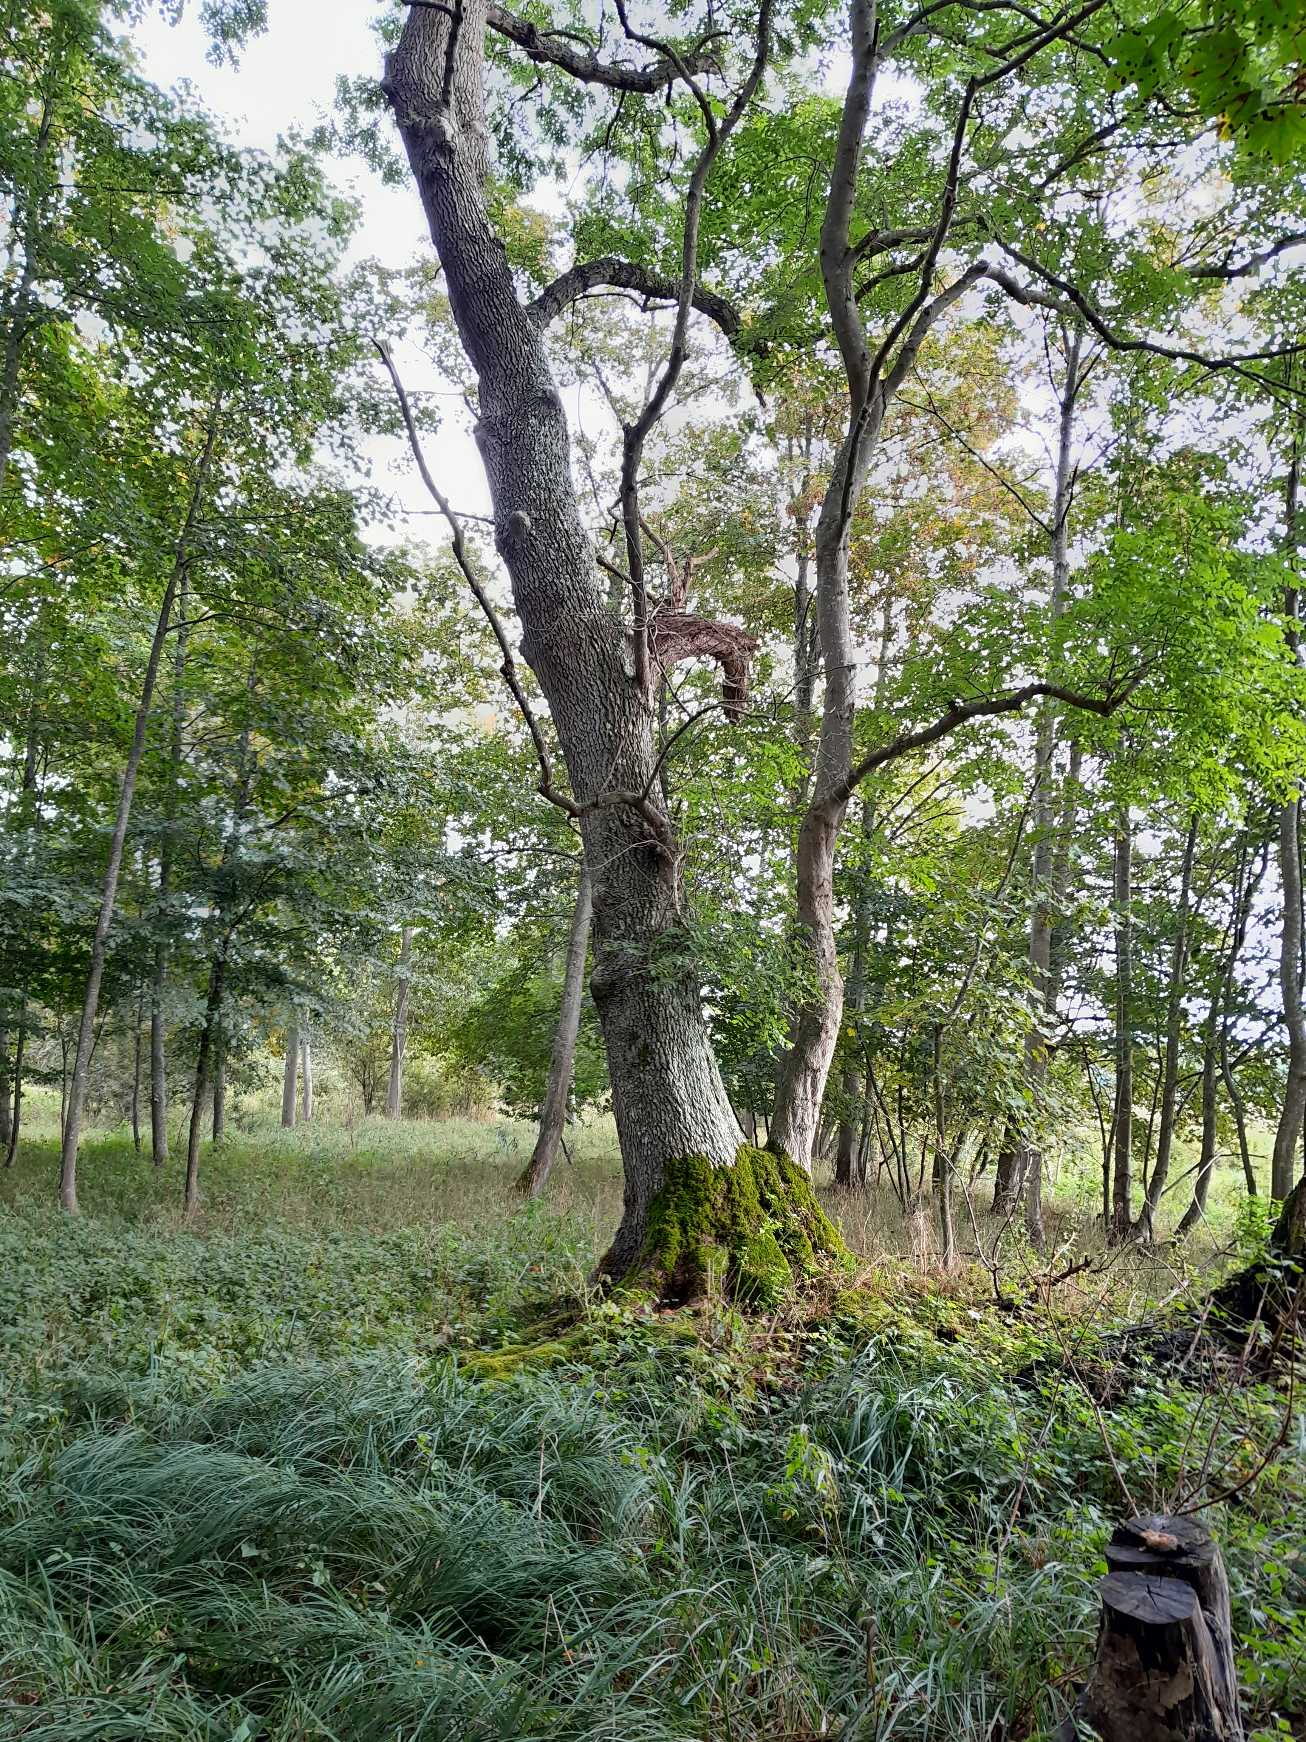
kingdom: Plantae
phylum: Tracheophyta
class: Magnoliopsida
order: Lamiales
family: Oleaceae
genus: Fraxinus
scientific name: Fraxinus excelsior
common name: Ask
